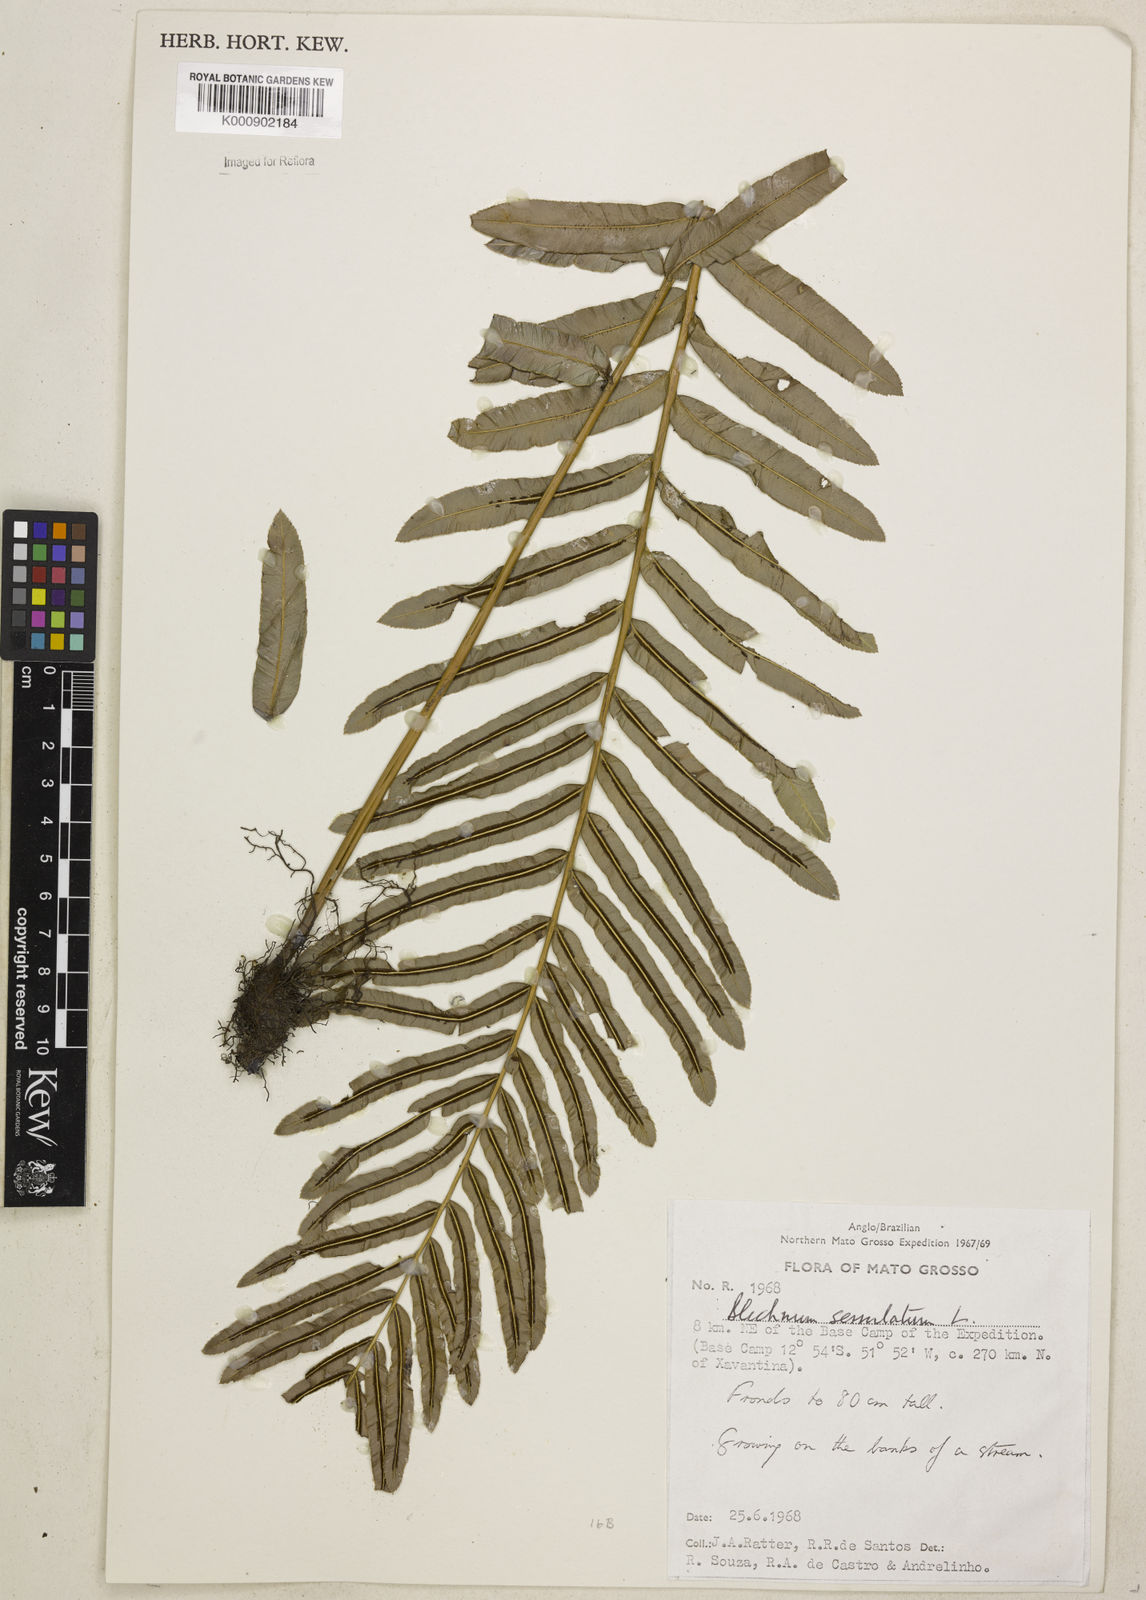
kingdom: Plantae
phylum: Tracheophyta
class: Polypodiopsida
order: Polypodiales
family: Blechnaceae
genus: Telmatoblechnum
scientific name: Telmatoblechnum serrulatum
